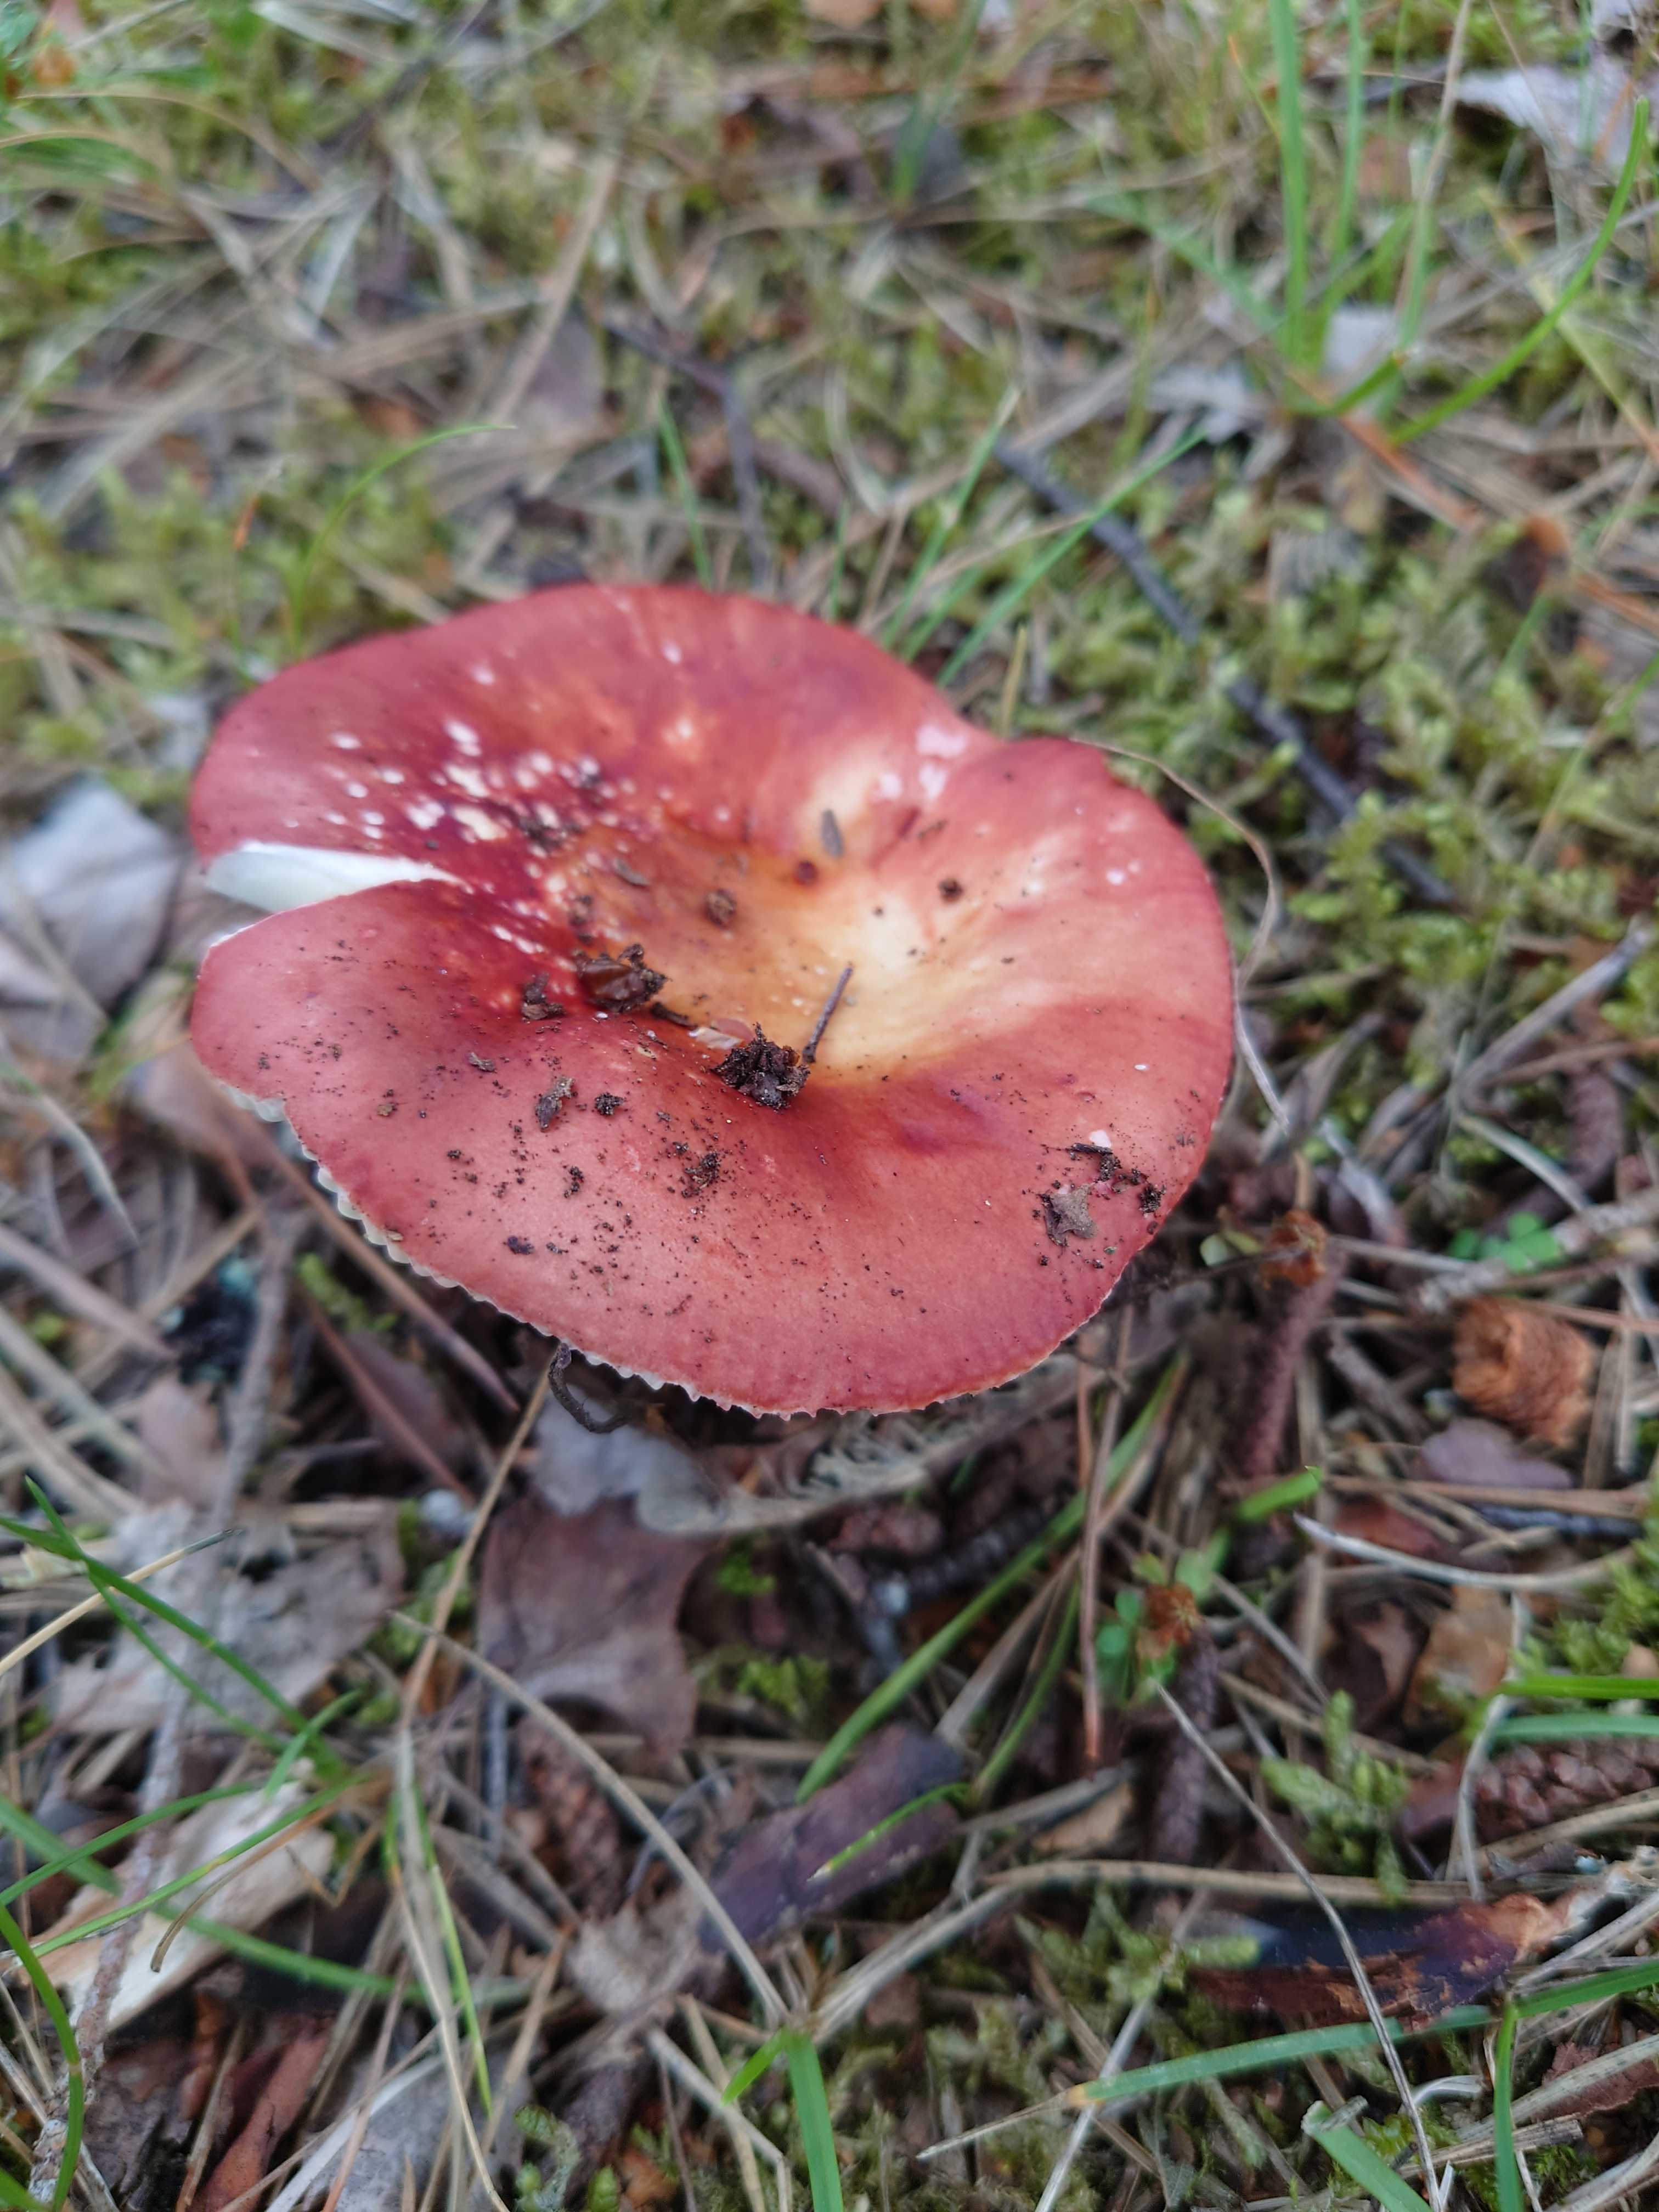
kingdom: Fungi
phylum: Basidiomycota
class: Agaricomycetes
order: Russulales
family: Russulaceae
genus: Russula
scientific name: Russula velenovskyi
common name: orangerød skørhat
